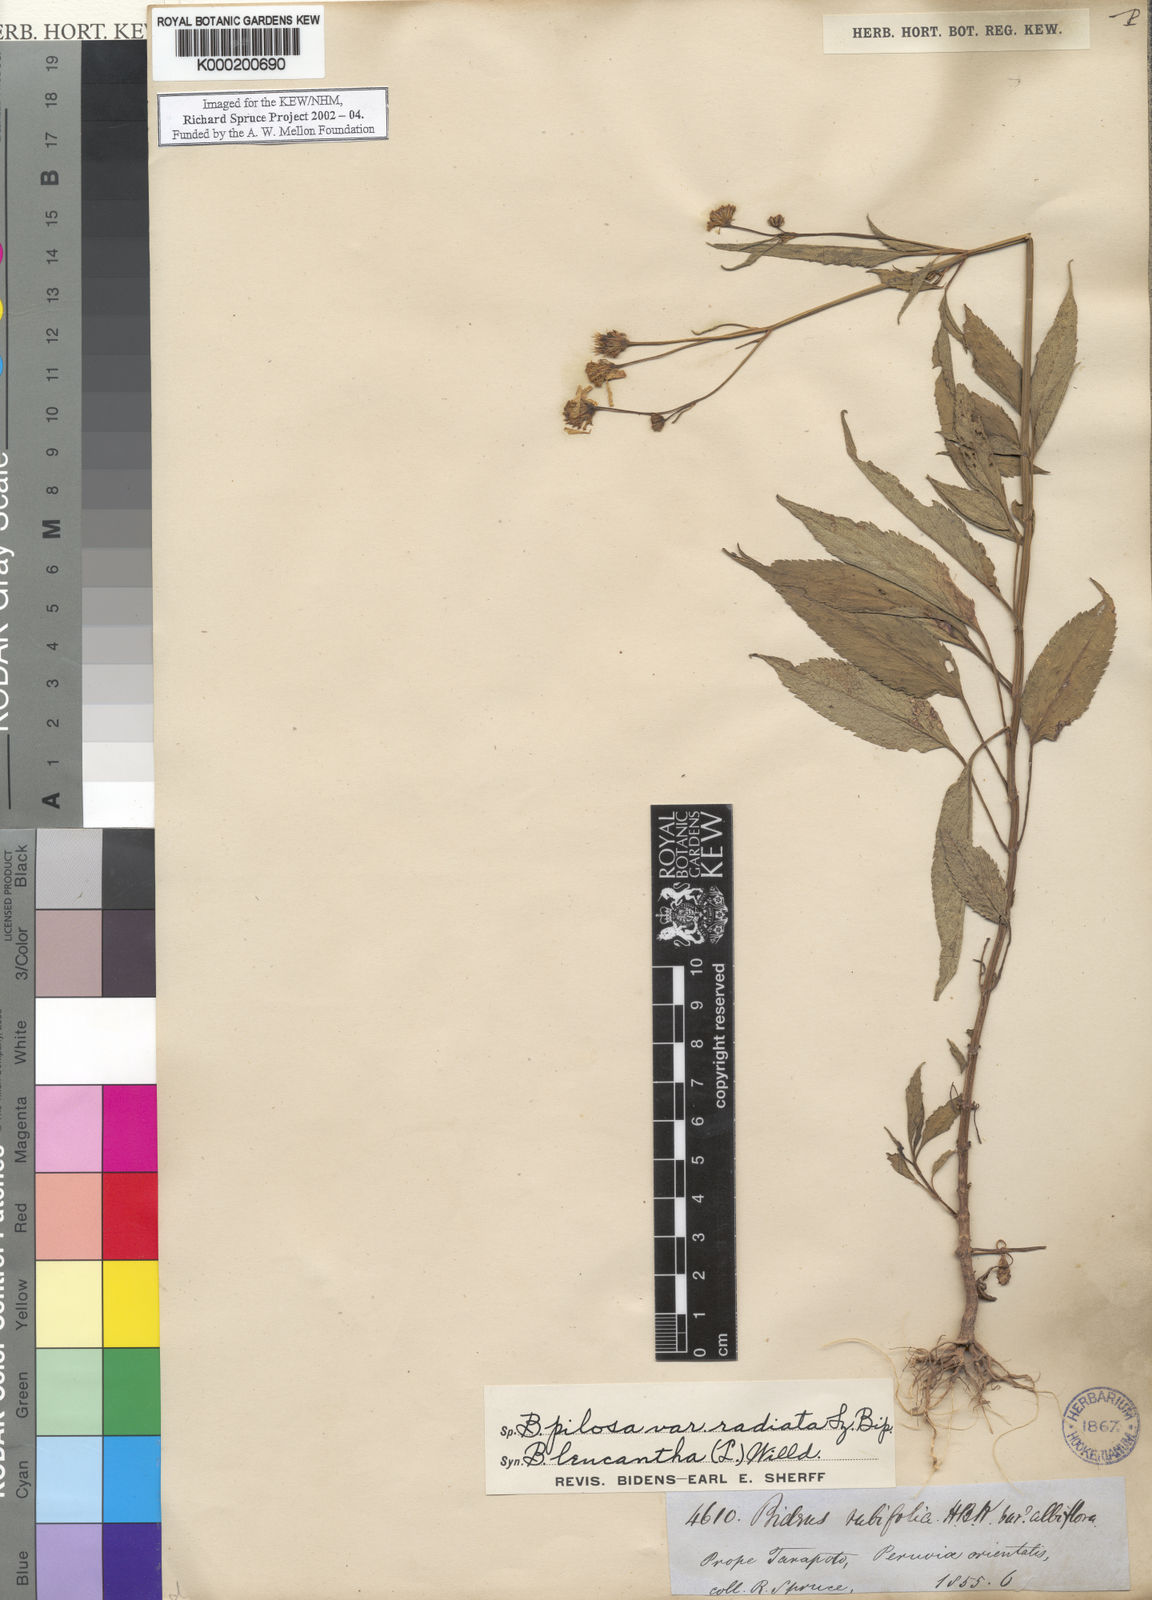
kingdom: Plantae
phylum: Tracheophyta
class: Magnoliopsida
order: Asterales
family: Asteraceae
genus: Bidens
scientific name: Bidens pilosa
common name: Black-jack
